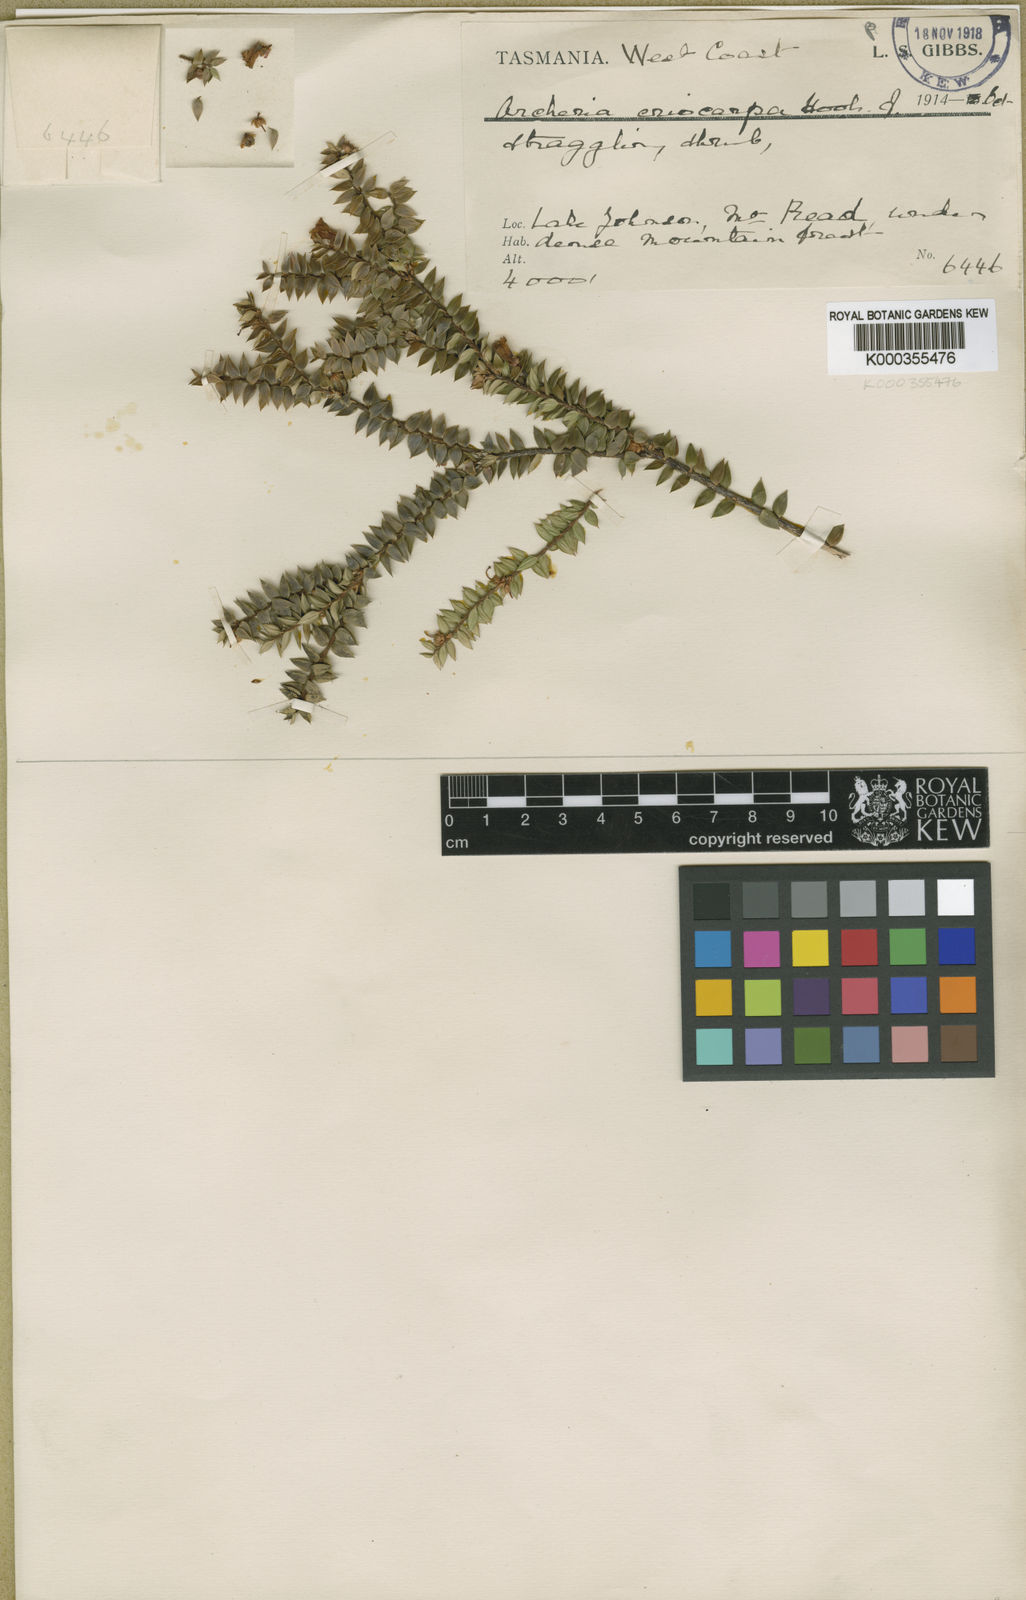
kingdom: Plantae
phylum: Tracheophyta
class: Magnoliopsida
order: Ericales
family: Ericaceae
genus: Archeria
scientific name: Archeria eriocarpa
